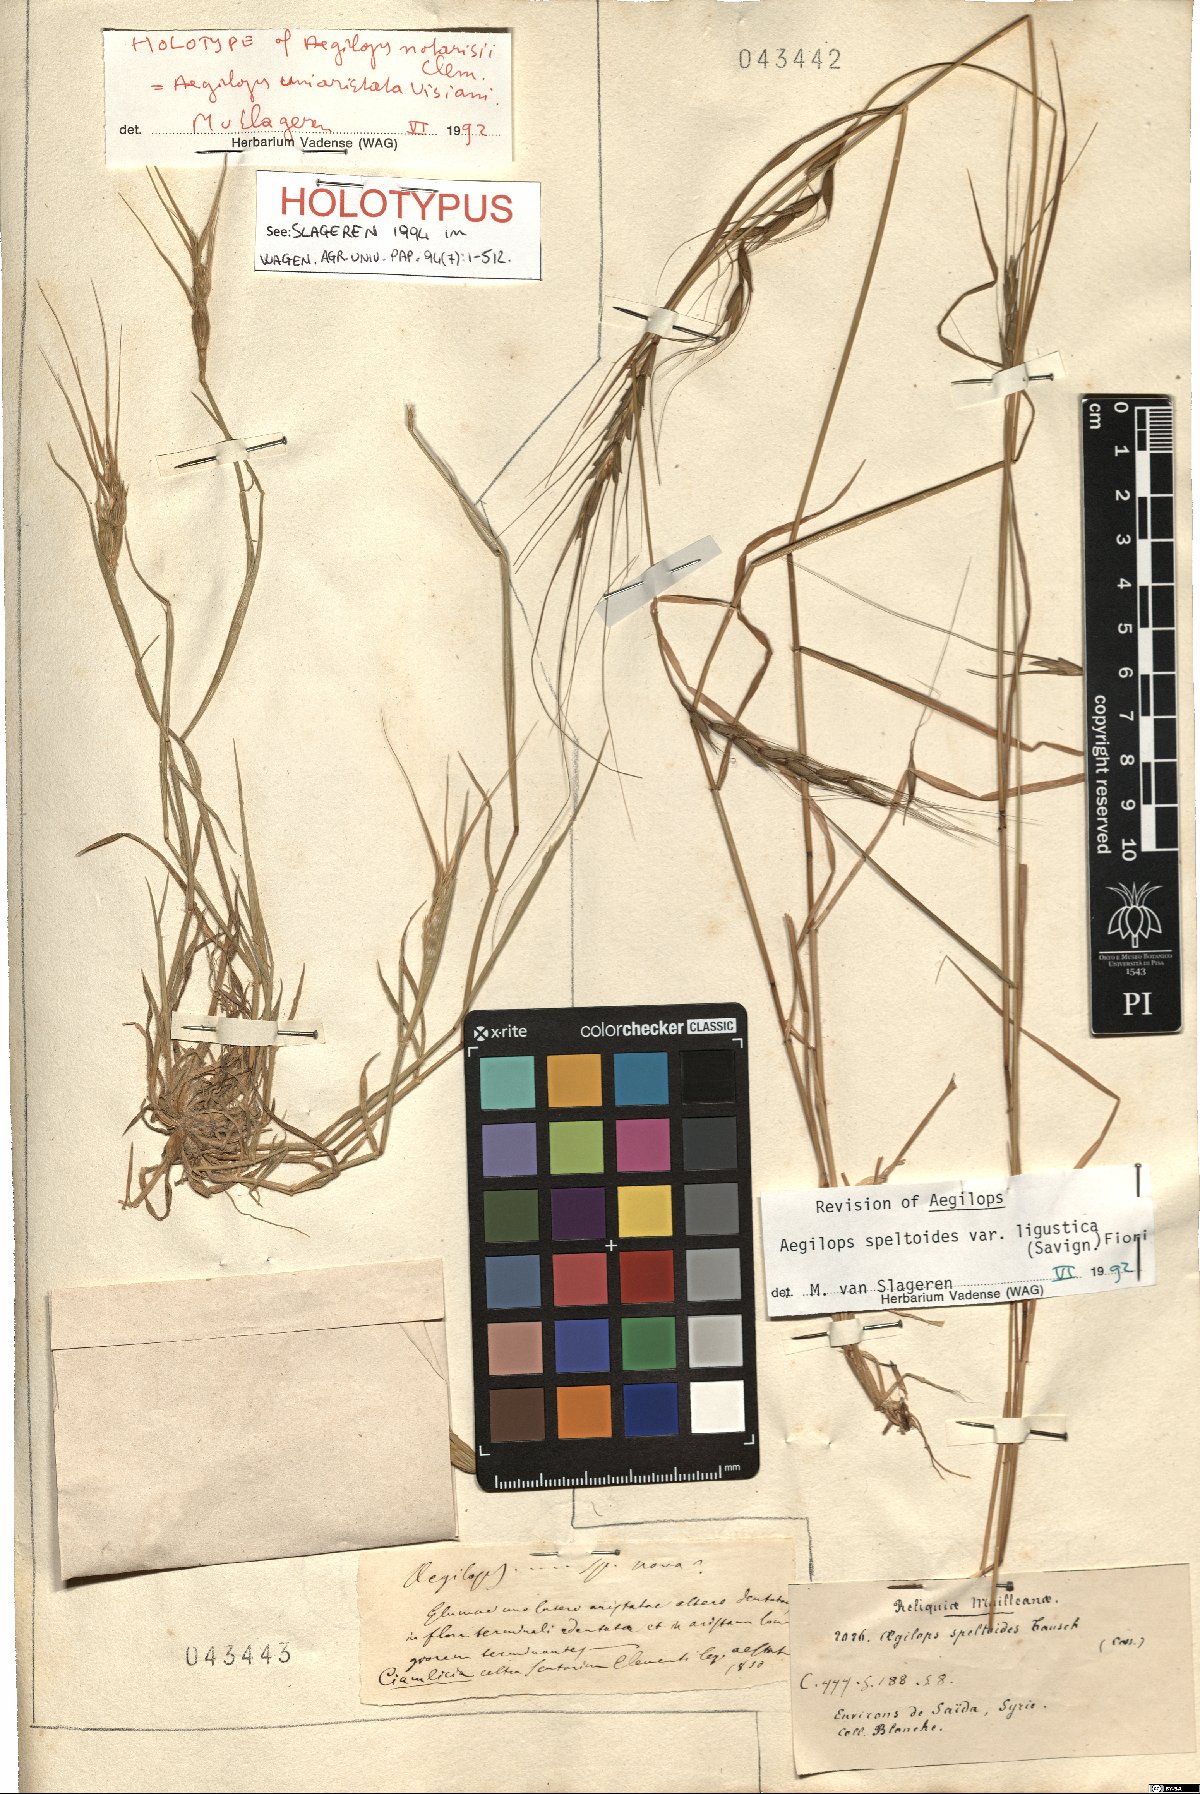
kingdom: Plantae
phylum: Tracheophyta
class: Liliopsida
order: Poales
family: Poaceae
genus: Aegilops
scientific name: Aegilops speltoides
